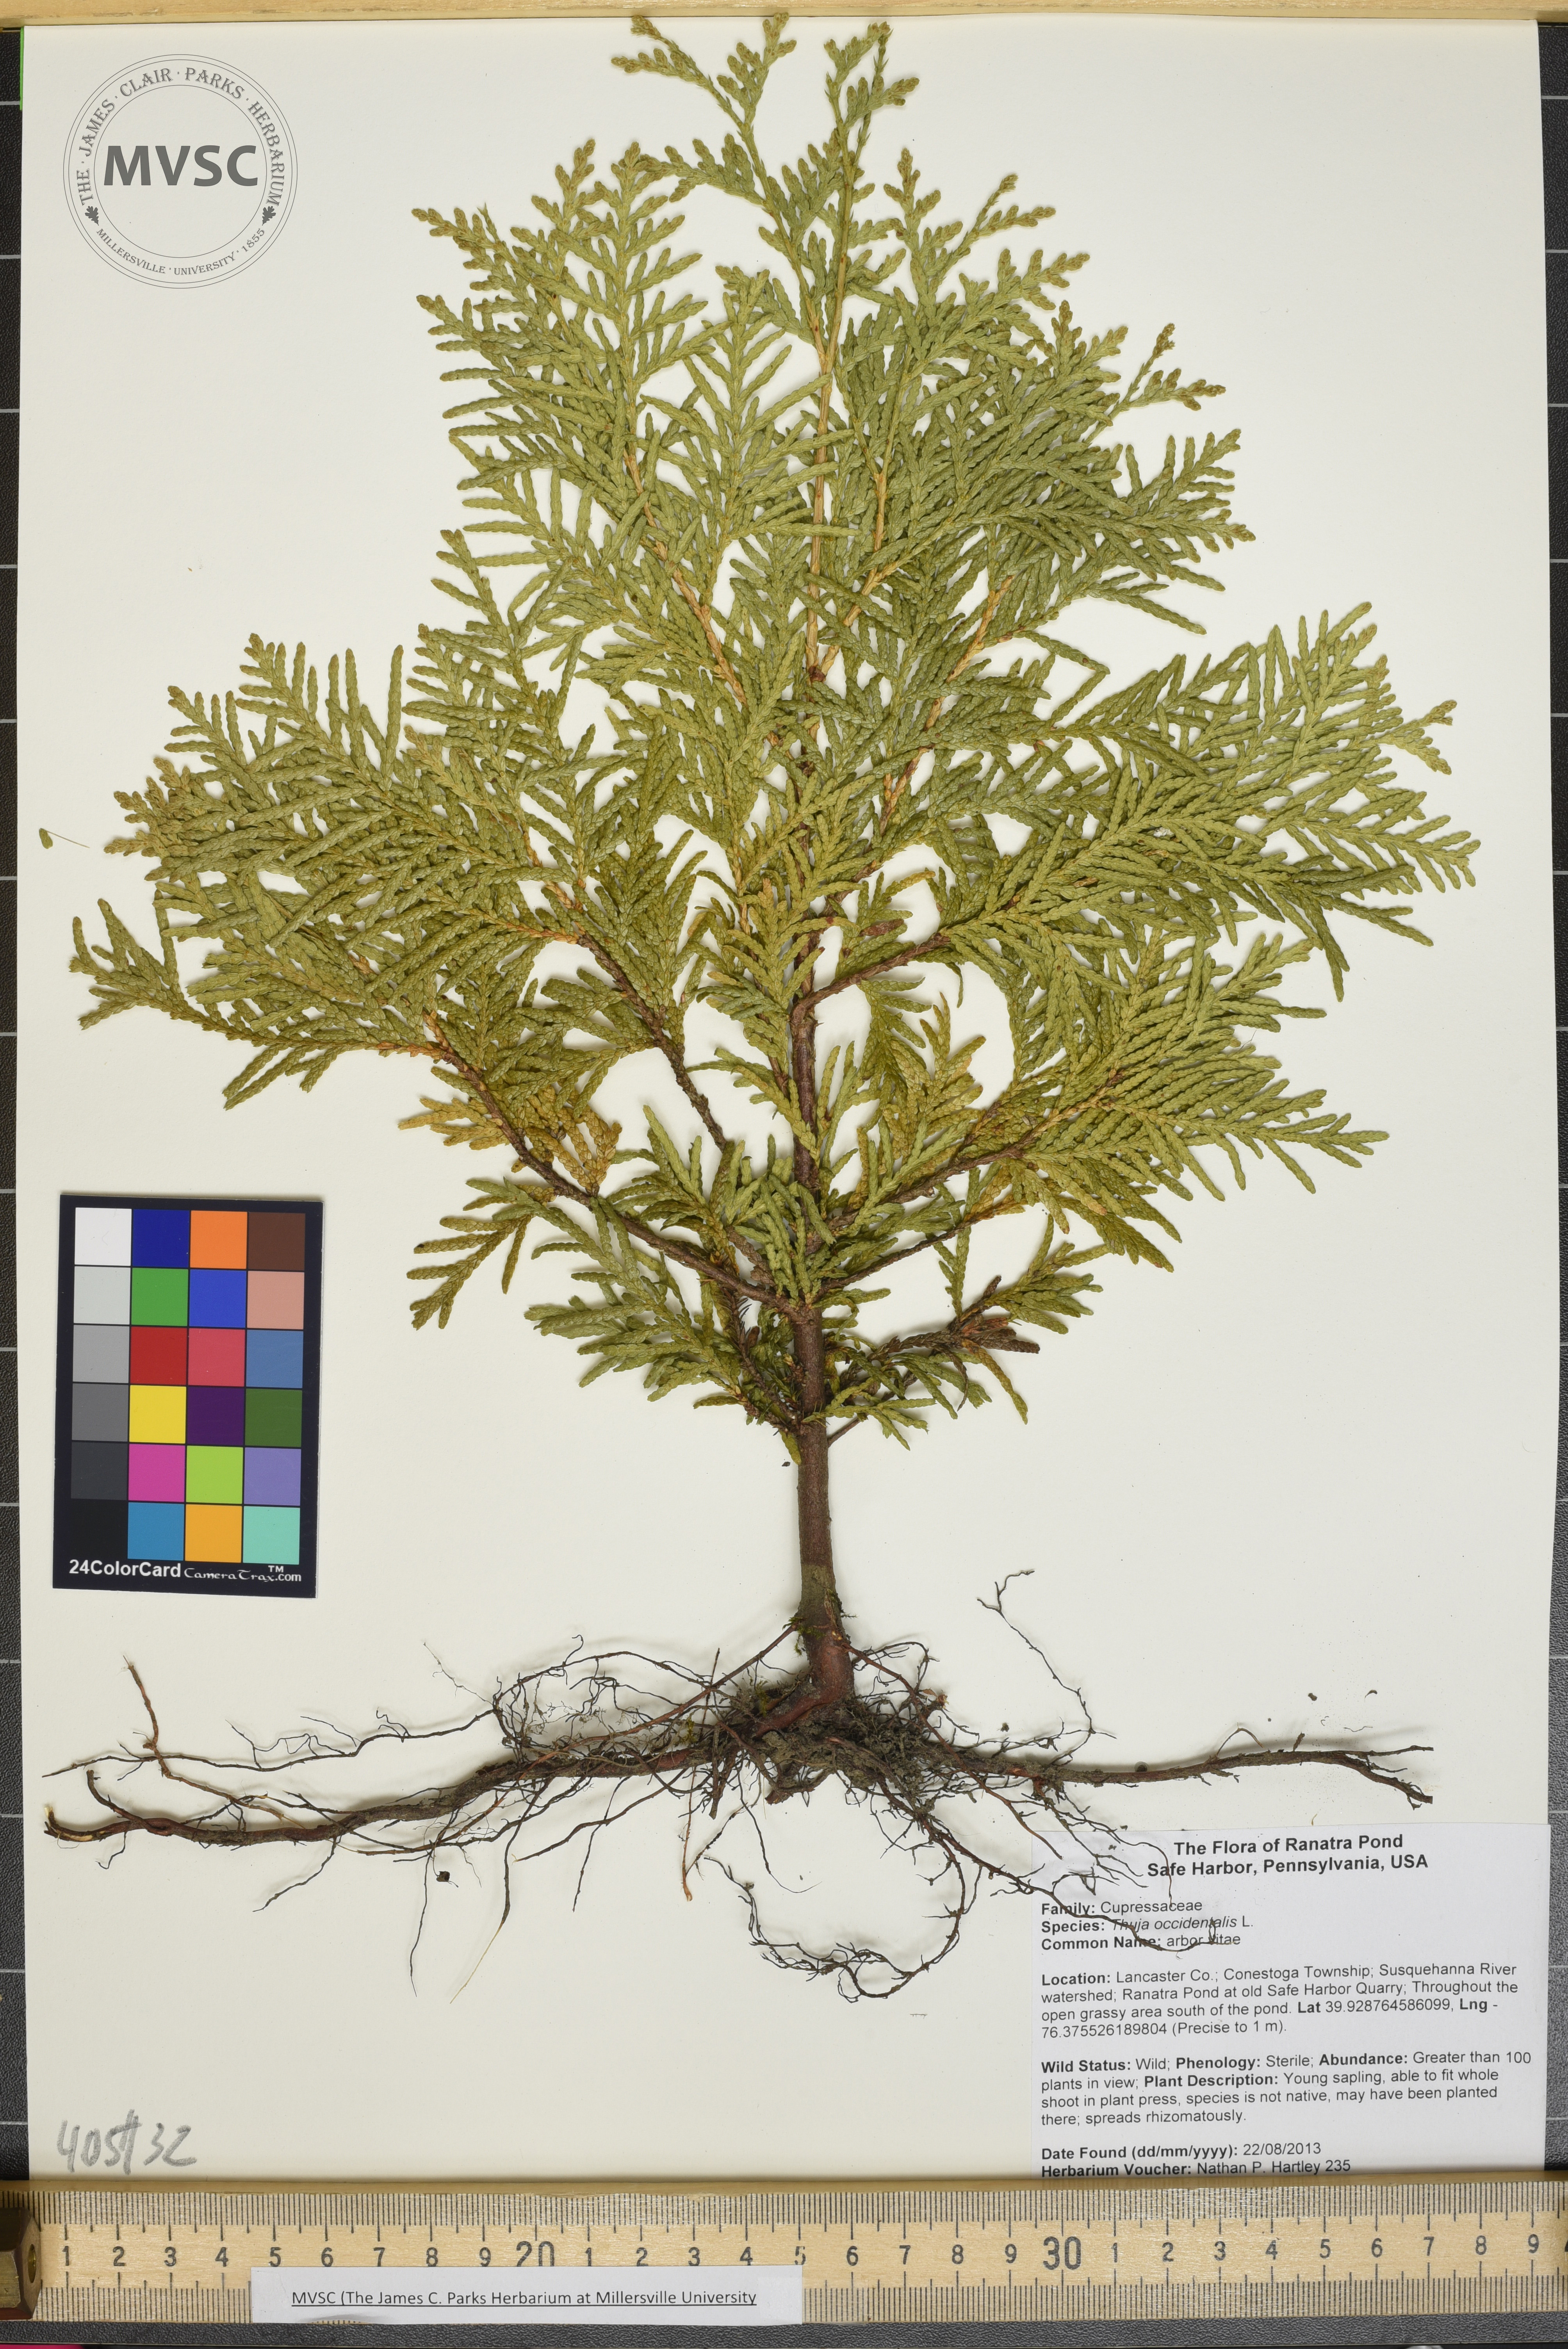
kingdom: Plantae
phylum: Tracheophyta
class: Pinopsida
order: Pinales
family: Cupressaceae
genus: Thuja
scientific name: Thuja occidentalis
